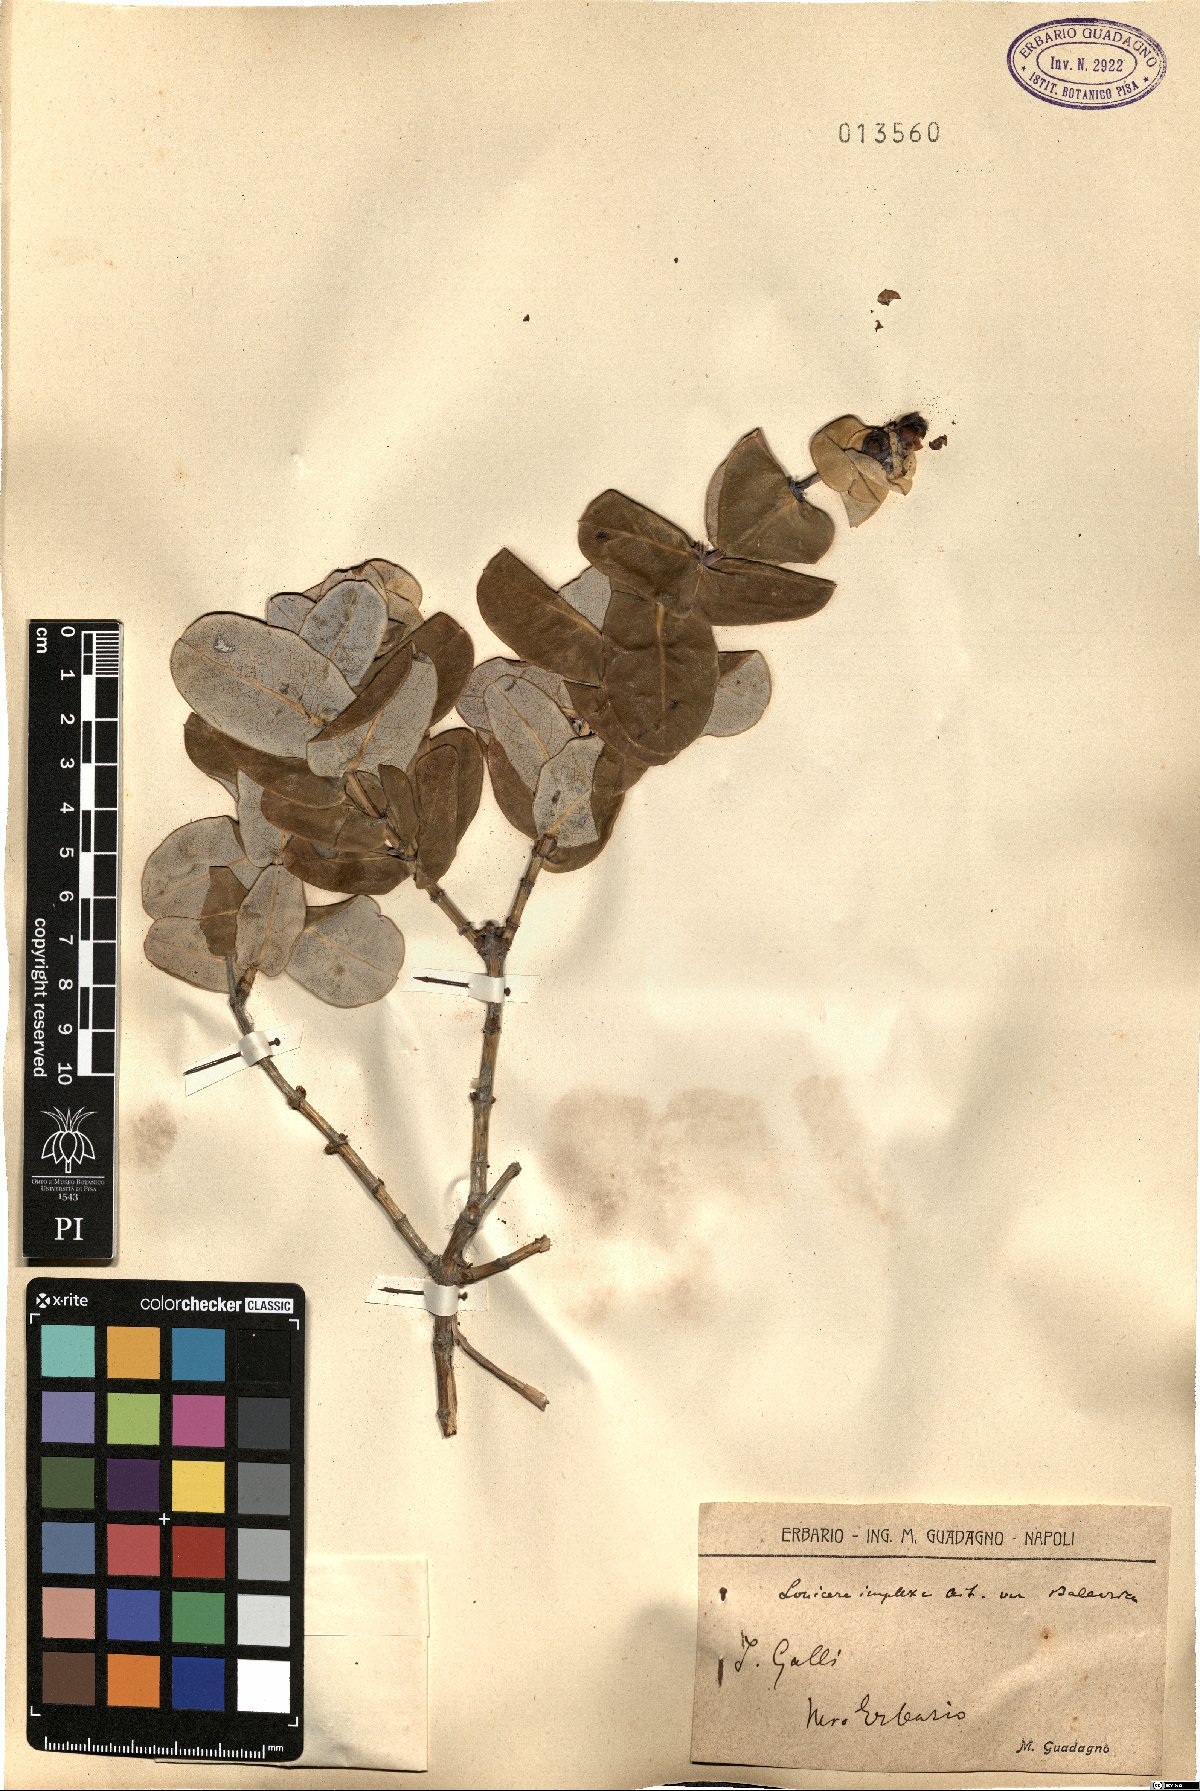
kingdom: Plantae
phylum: Tracheophyta
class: Magnoliopsida
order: Dipsacales
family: Caprifoliaceae
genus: Lonicera
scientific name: Lonicera implexa
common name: Minorca honeysuckle
